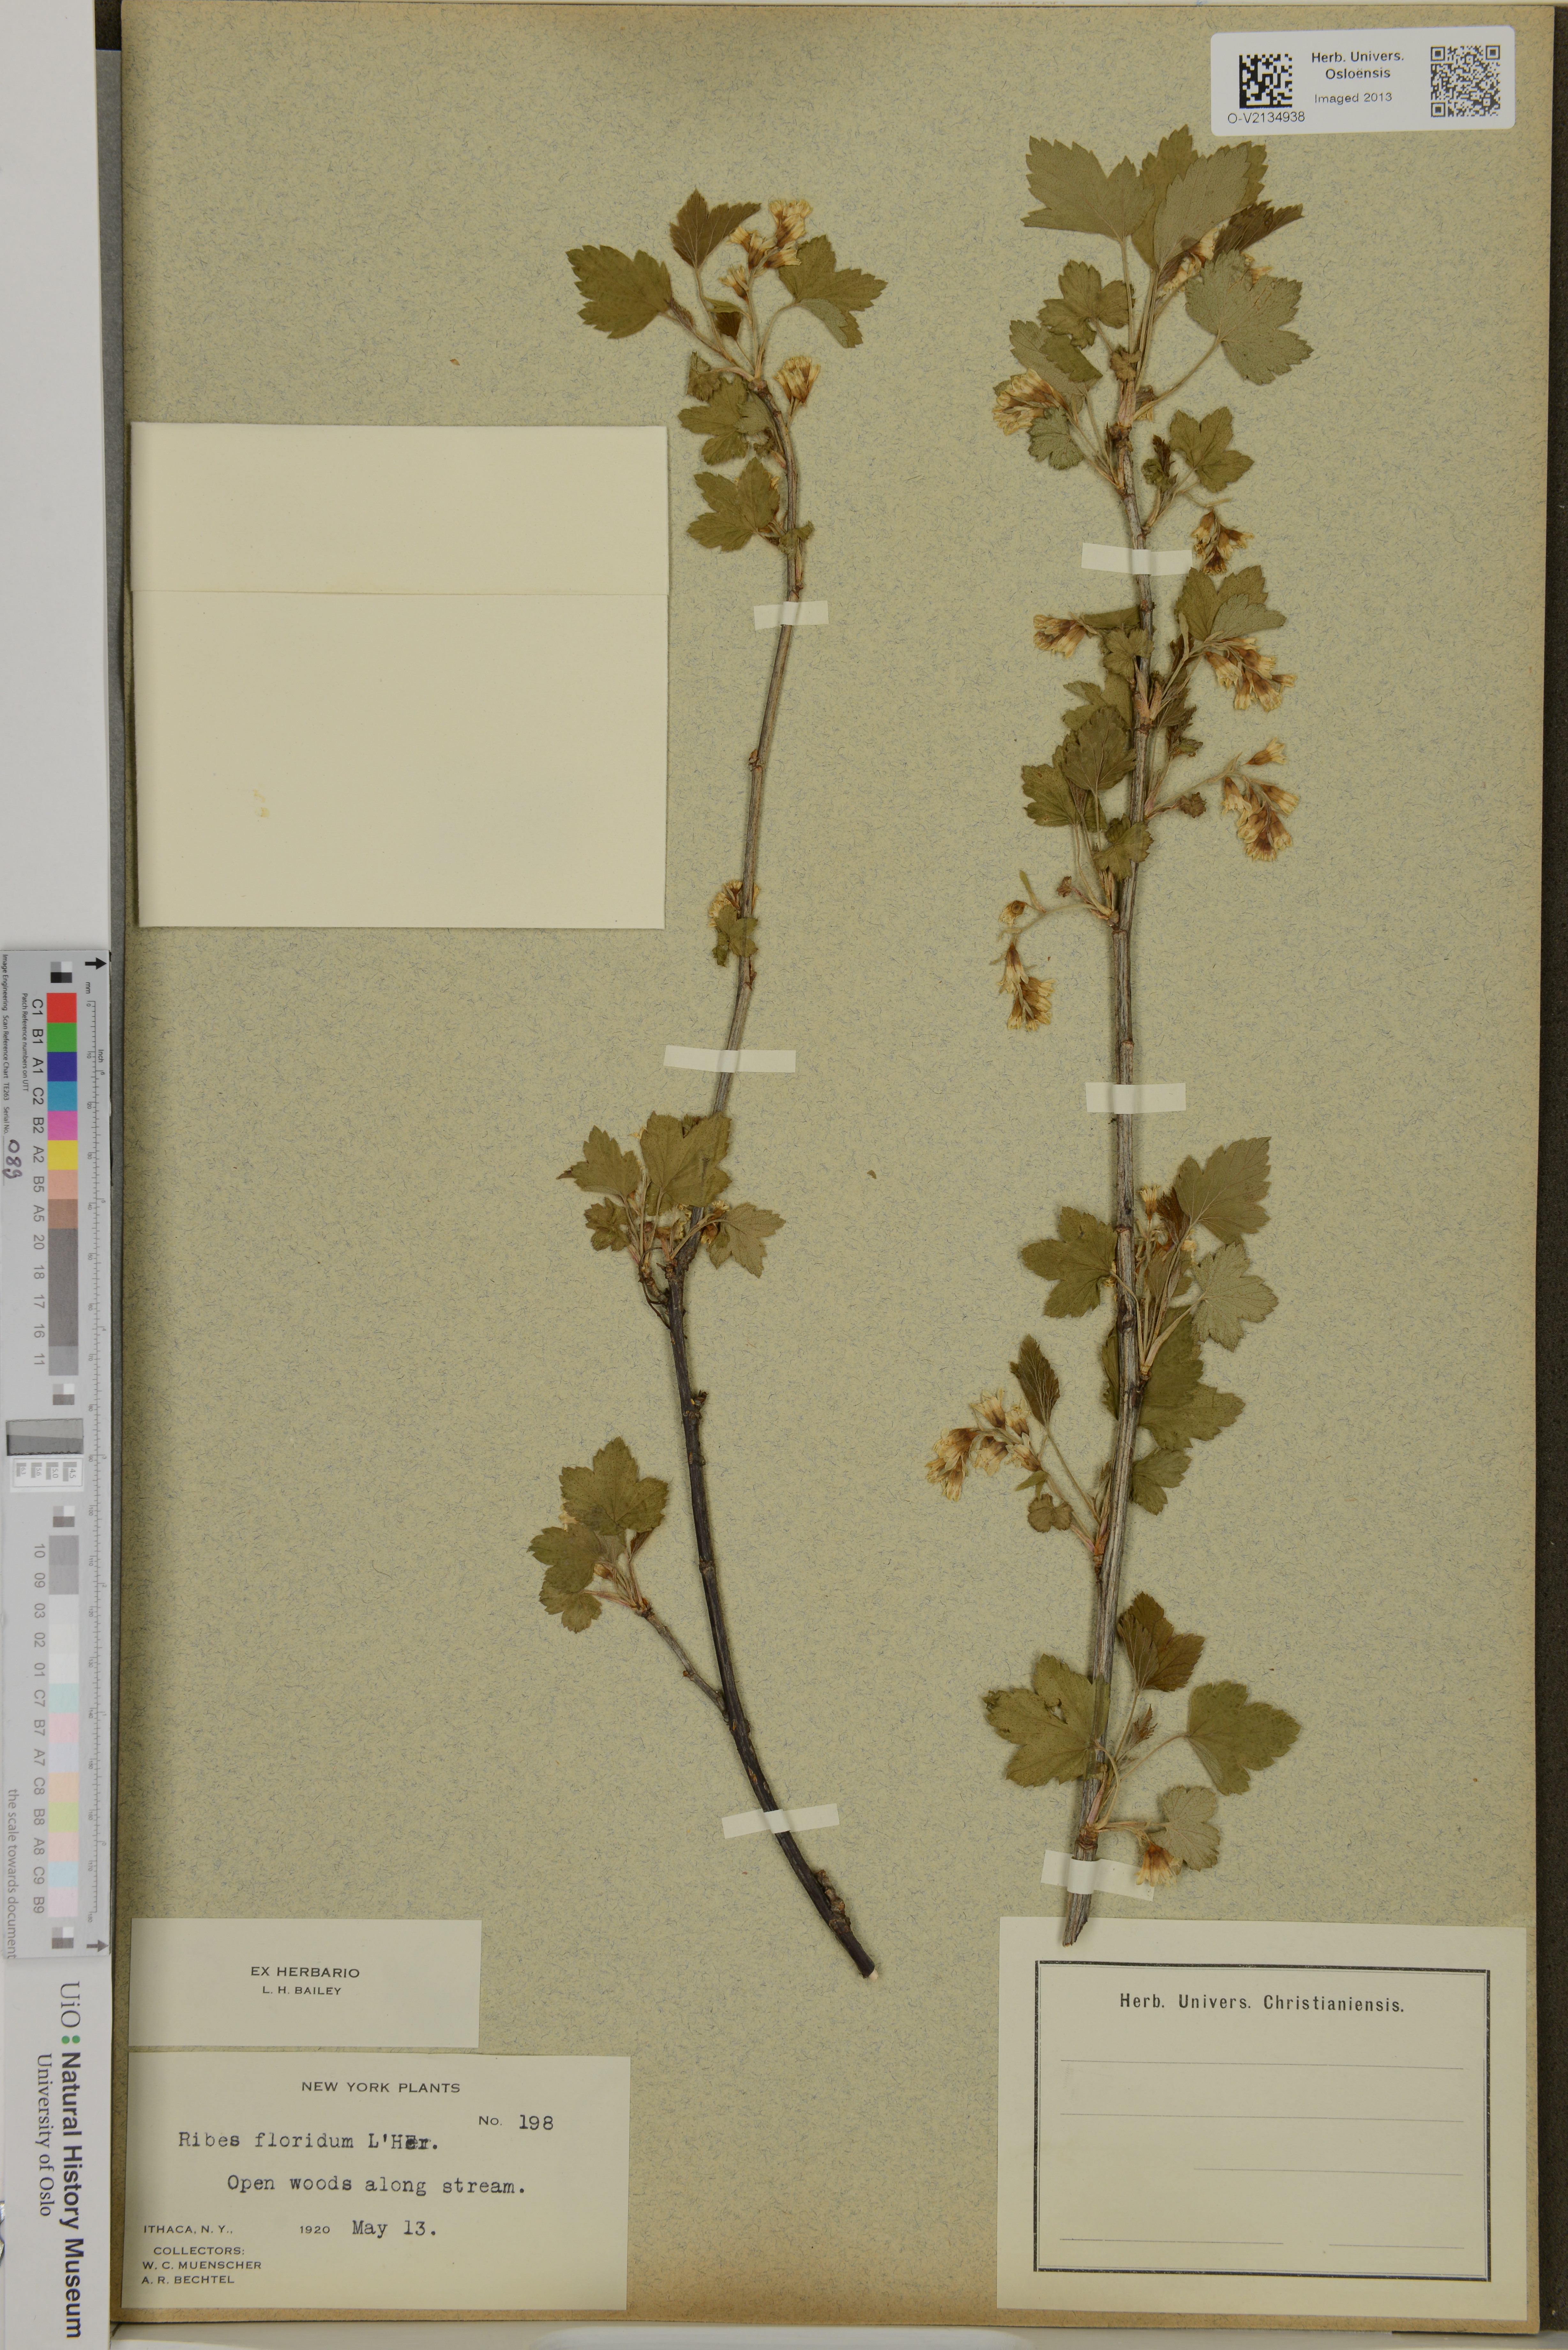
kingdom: Plantae
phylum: Tracheophyta
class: Magnoliopsida
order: Saxifragales
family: Grossulariaceae
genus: Ribes
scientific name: Ribes
